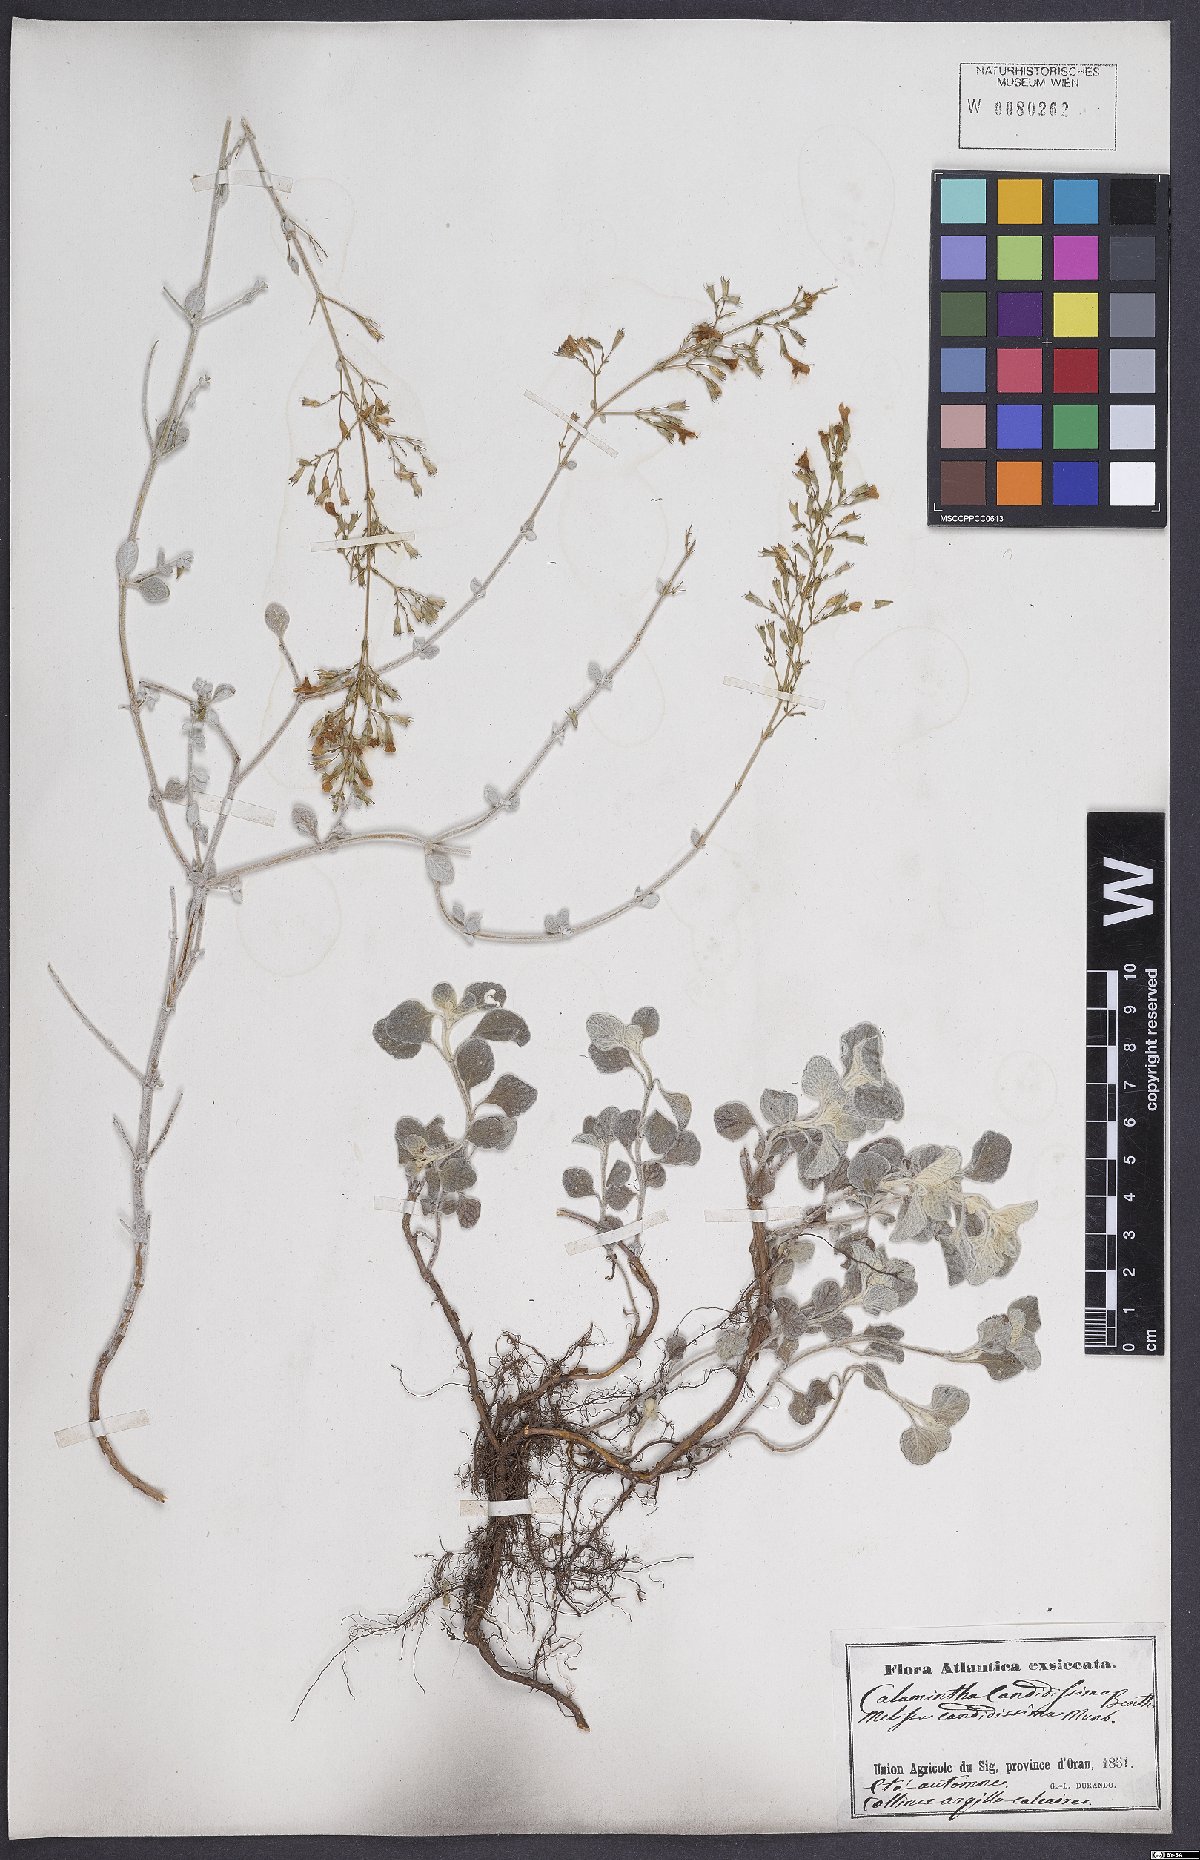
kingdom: Plantae
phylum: Tracheophyta
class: Magnoliopsida
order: Lamiales
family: Lamiaceae
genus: Calamintha
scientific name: Calamintha
